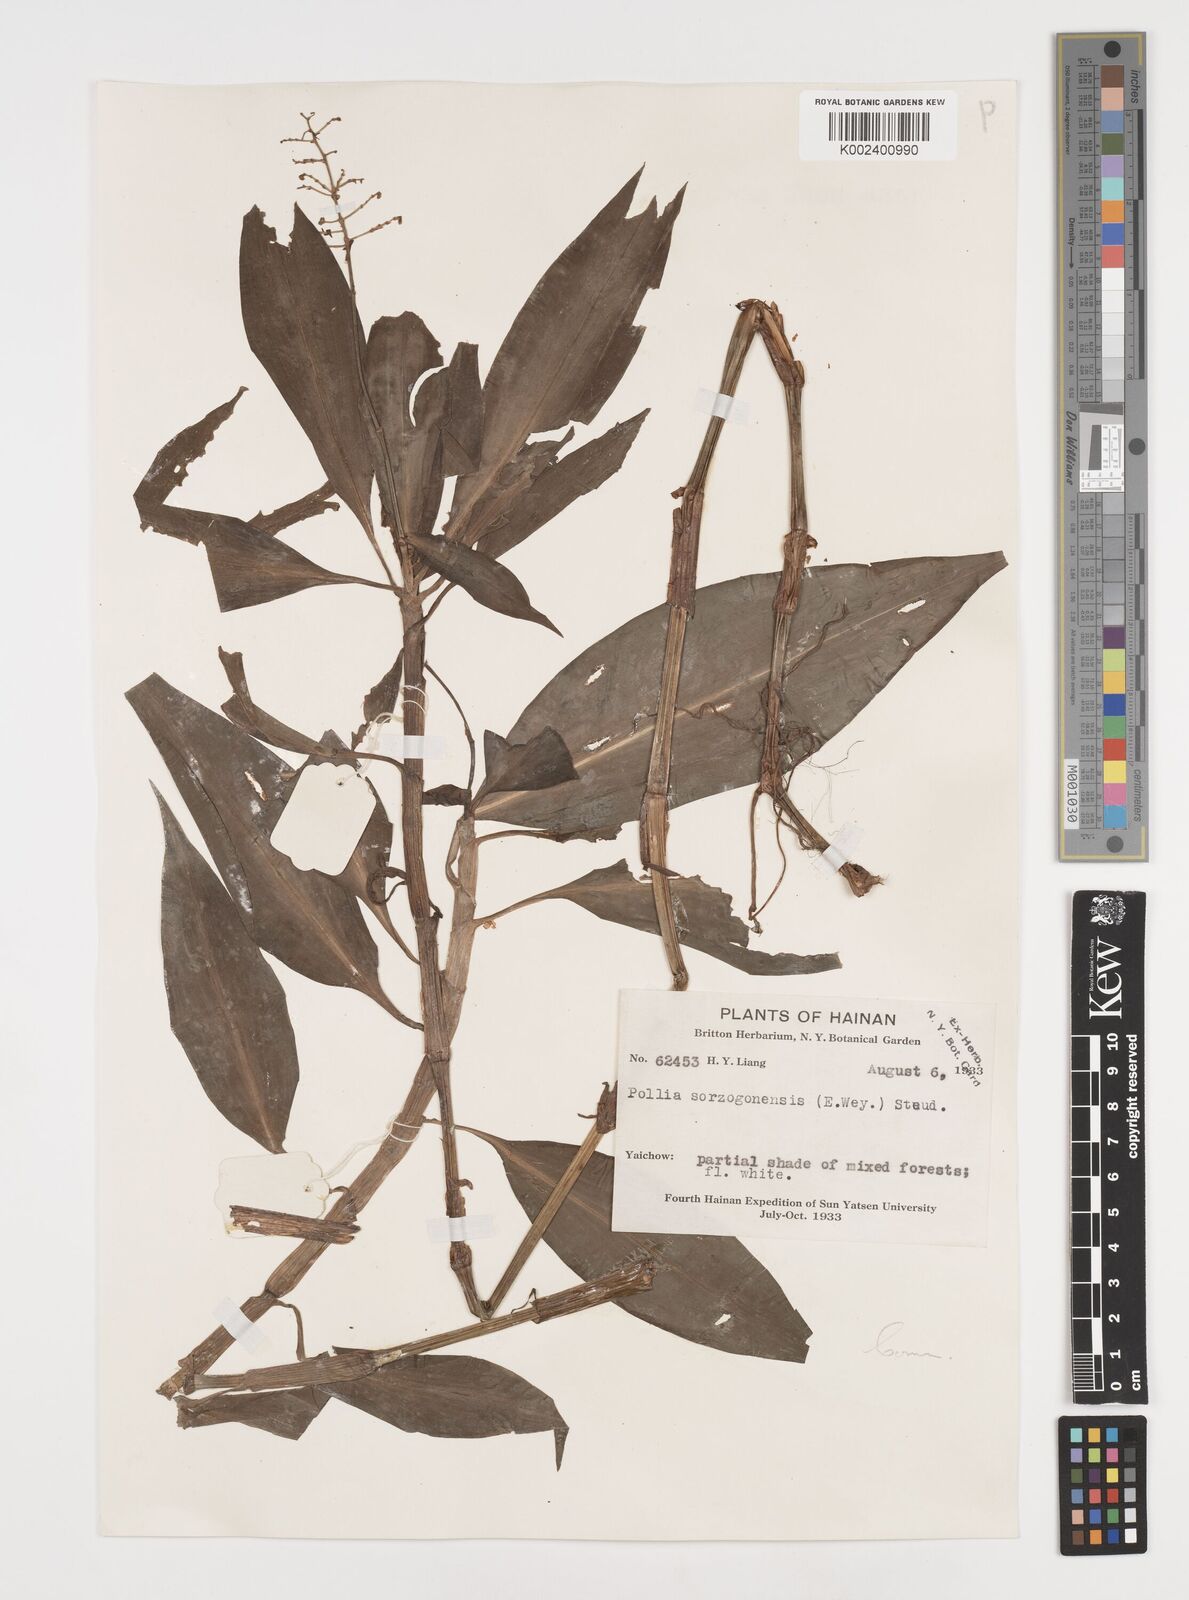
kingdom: Plantae
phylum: Tracheophyta
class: Liliopsida
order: Commelinales
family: Commelinaceae
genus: Pollia
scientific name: Pollia secundiflora
